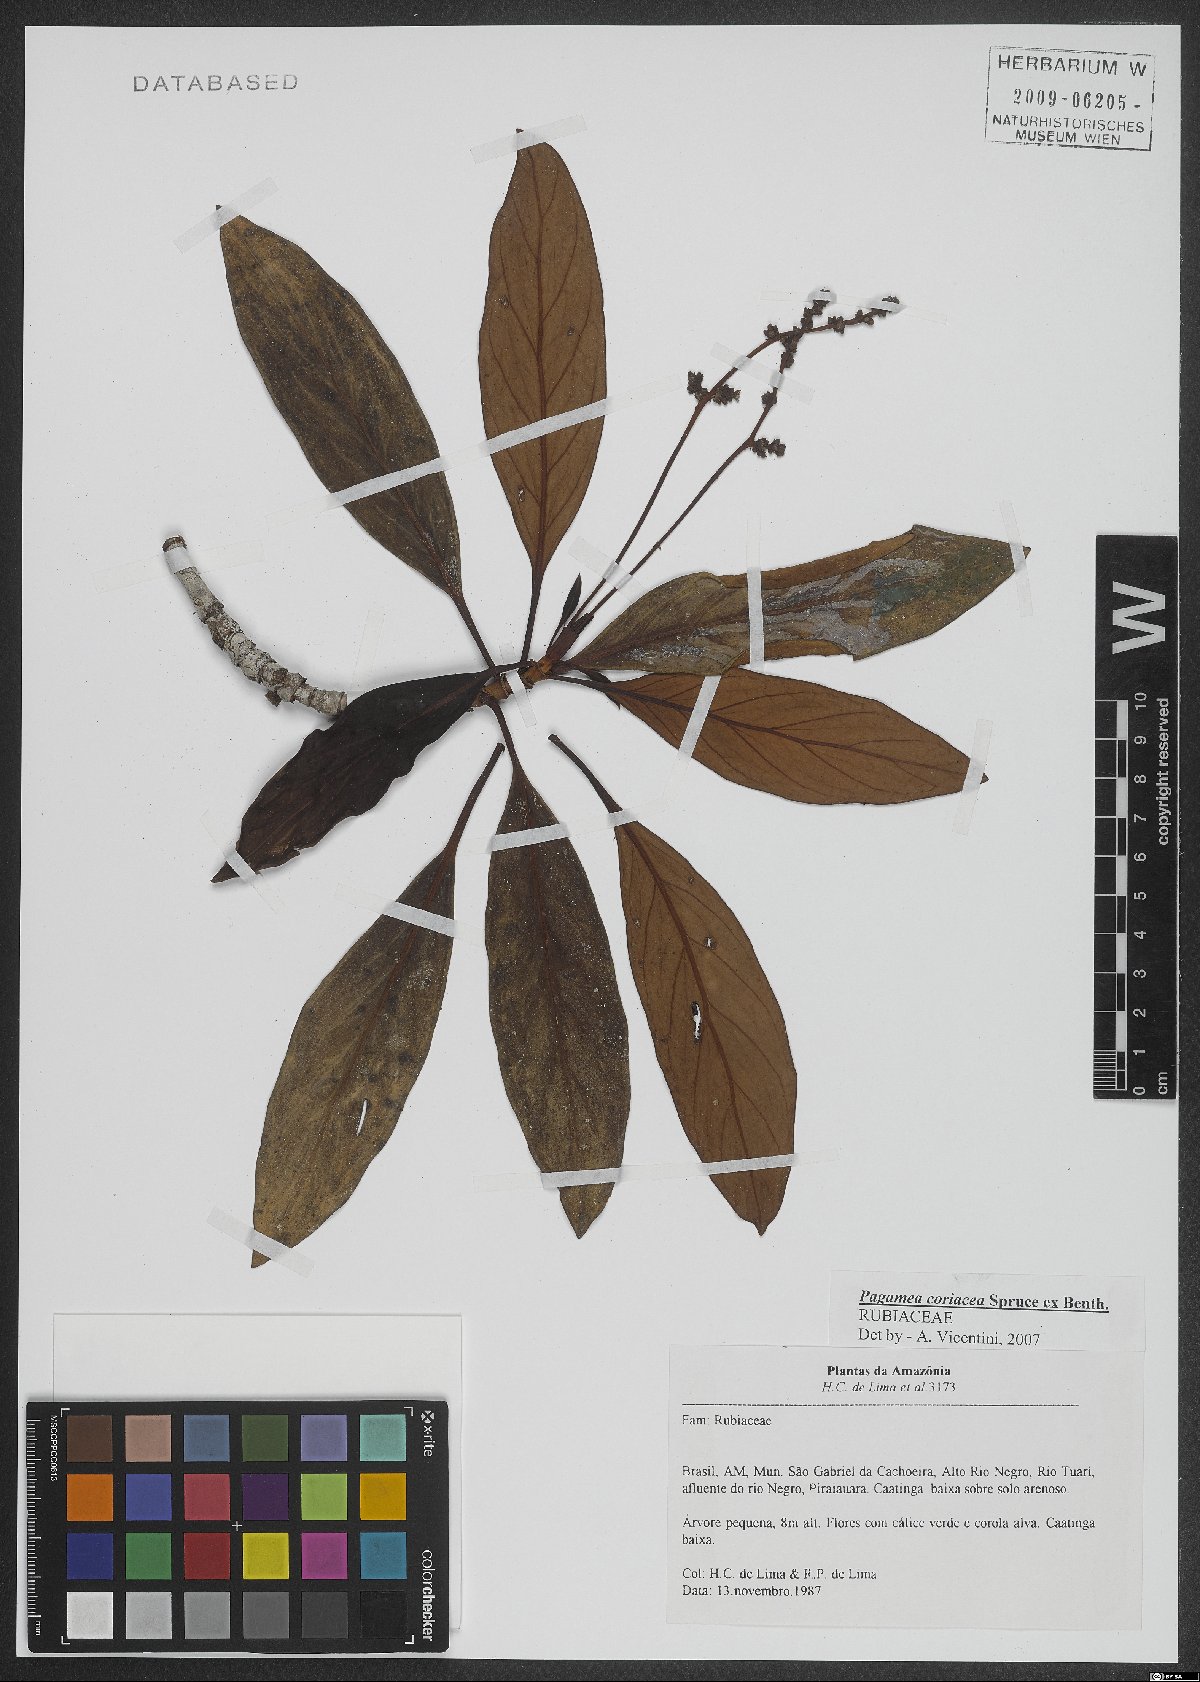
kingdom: Plantae
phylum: Tracheophyta
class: Magnoliopsida
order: Gentianales
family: Rubiaceae
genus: Pagamea
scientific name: Pagamea coriacea
